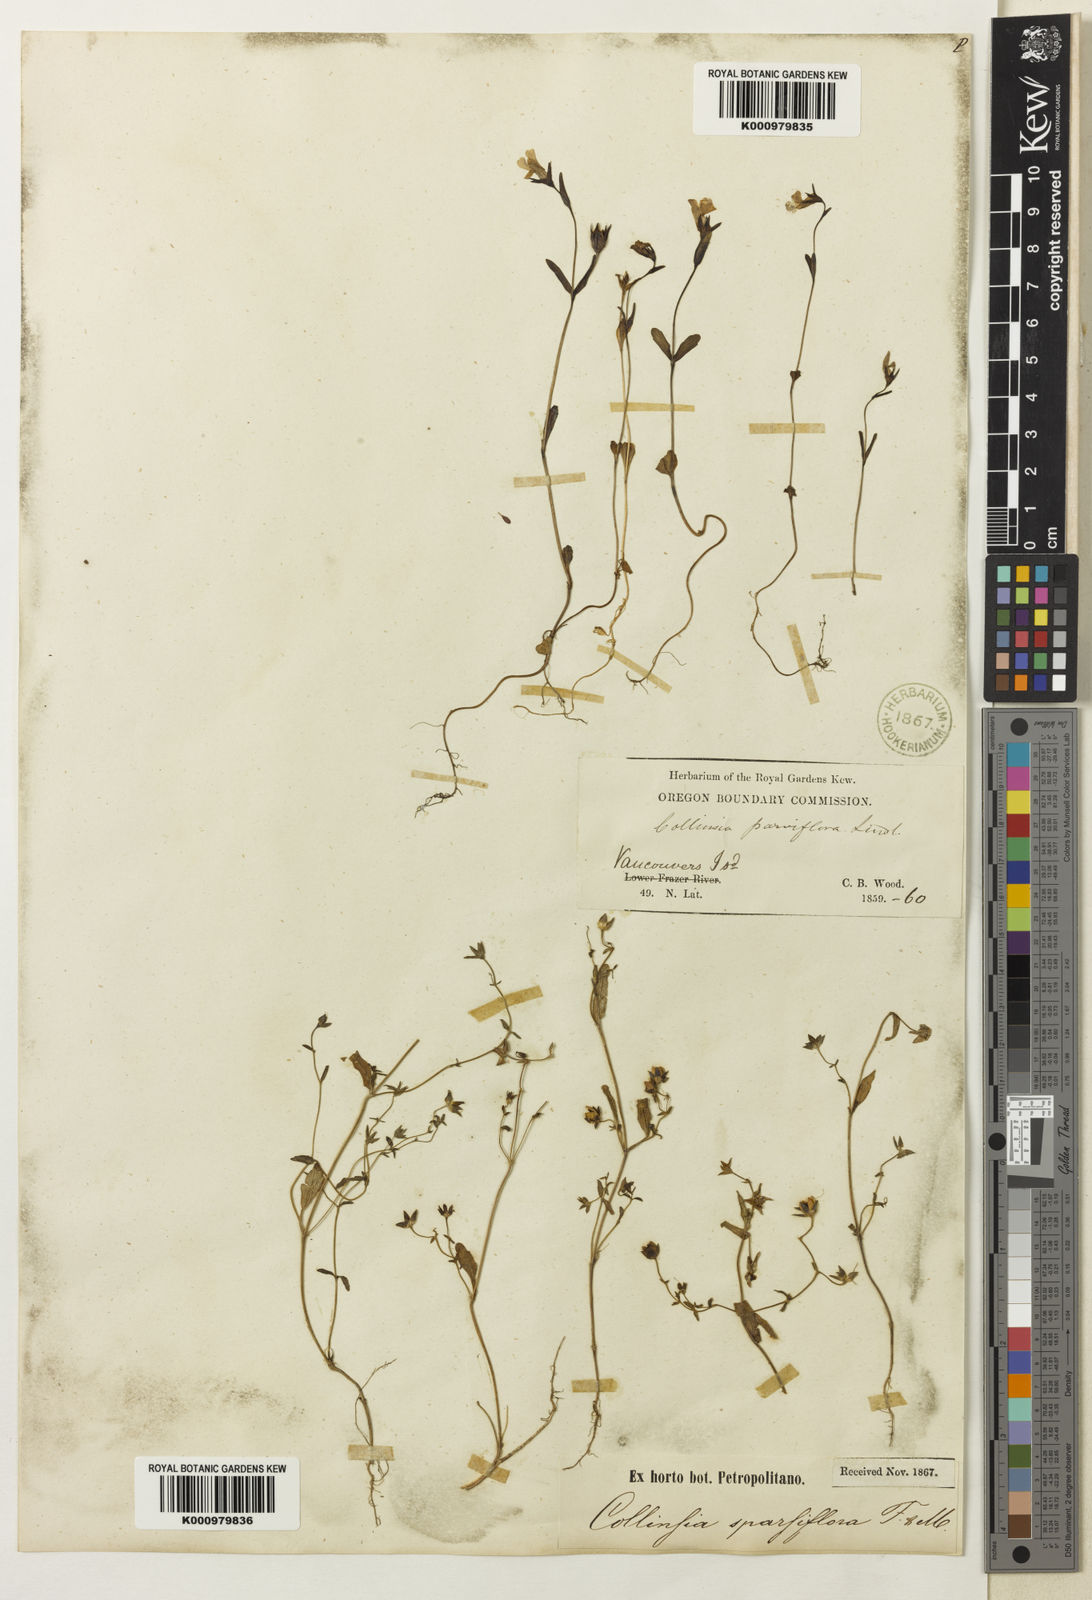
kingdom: Plantae
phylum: Tracheophyta
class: Magnoliopsida
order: Lamiales
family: Plantaginaceae
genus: Collinsia
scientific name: Collinsia parviflora
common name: Blue-lips
